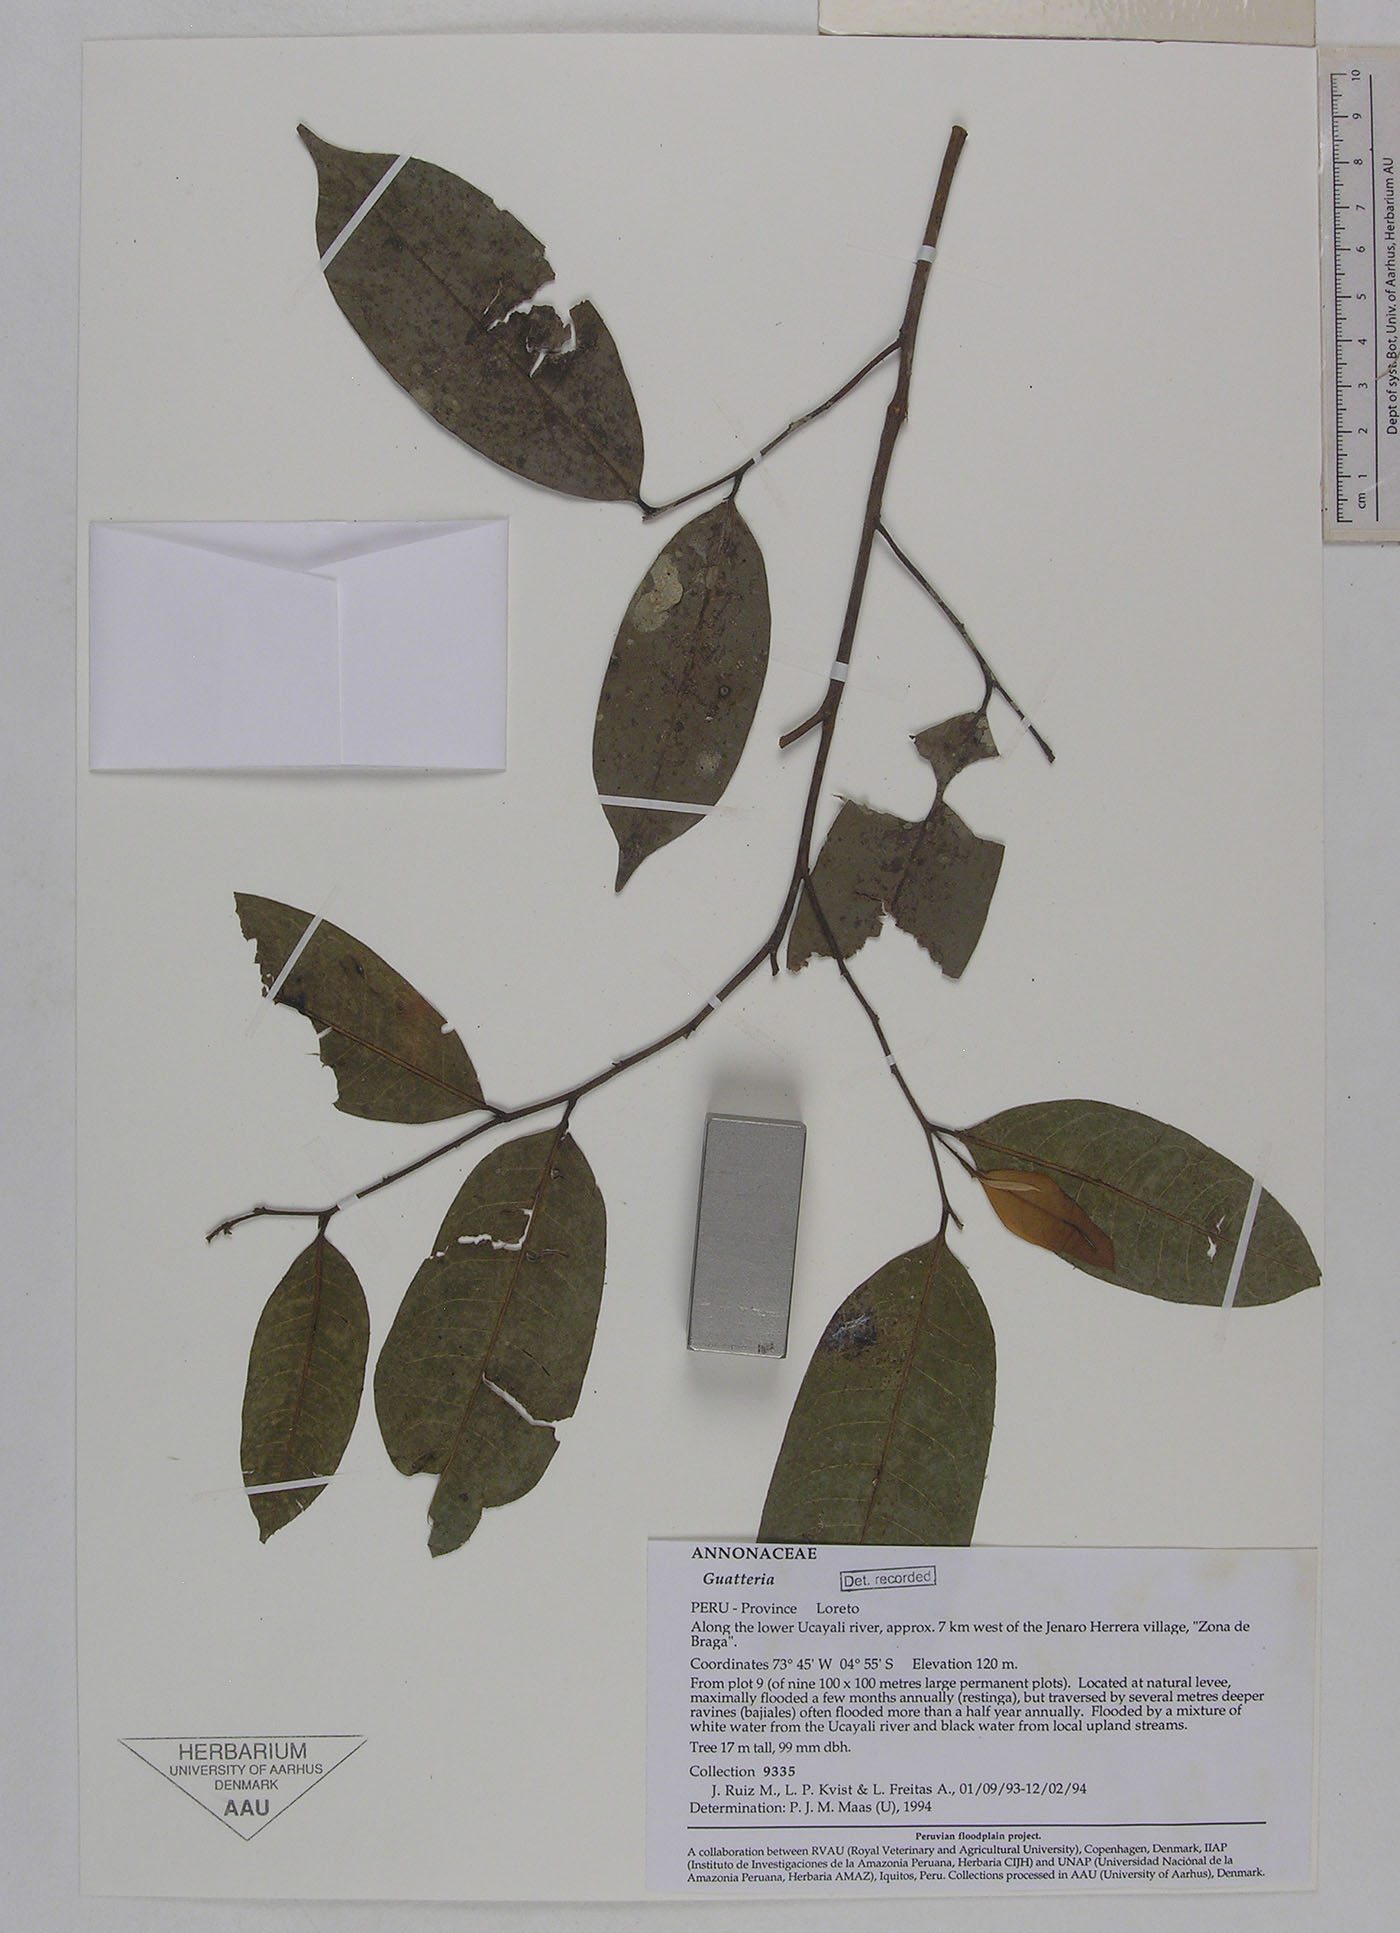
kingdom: Plantae
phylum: Tracheophyta
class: Magnoliopsida
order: Magnoliales
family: Annonaceae
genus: Guatteria
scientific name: Guatteria
